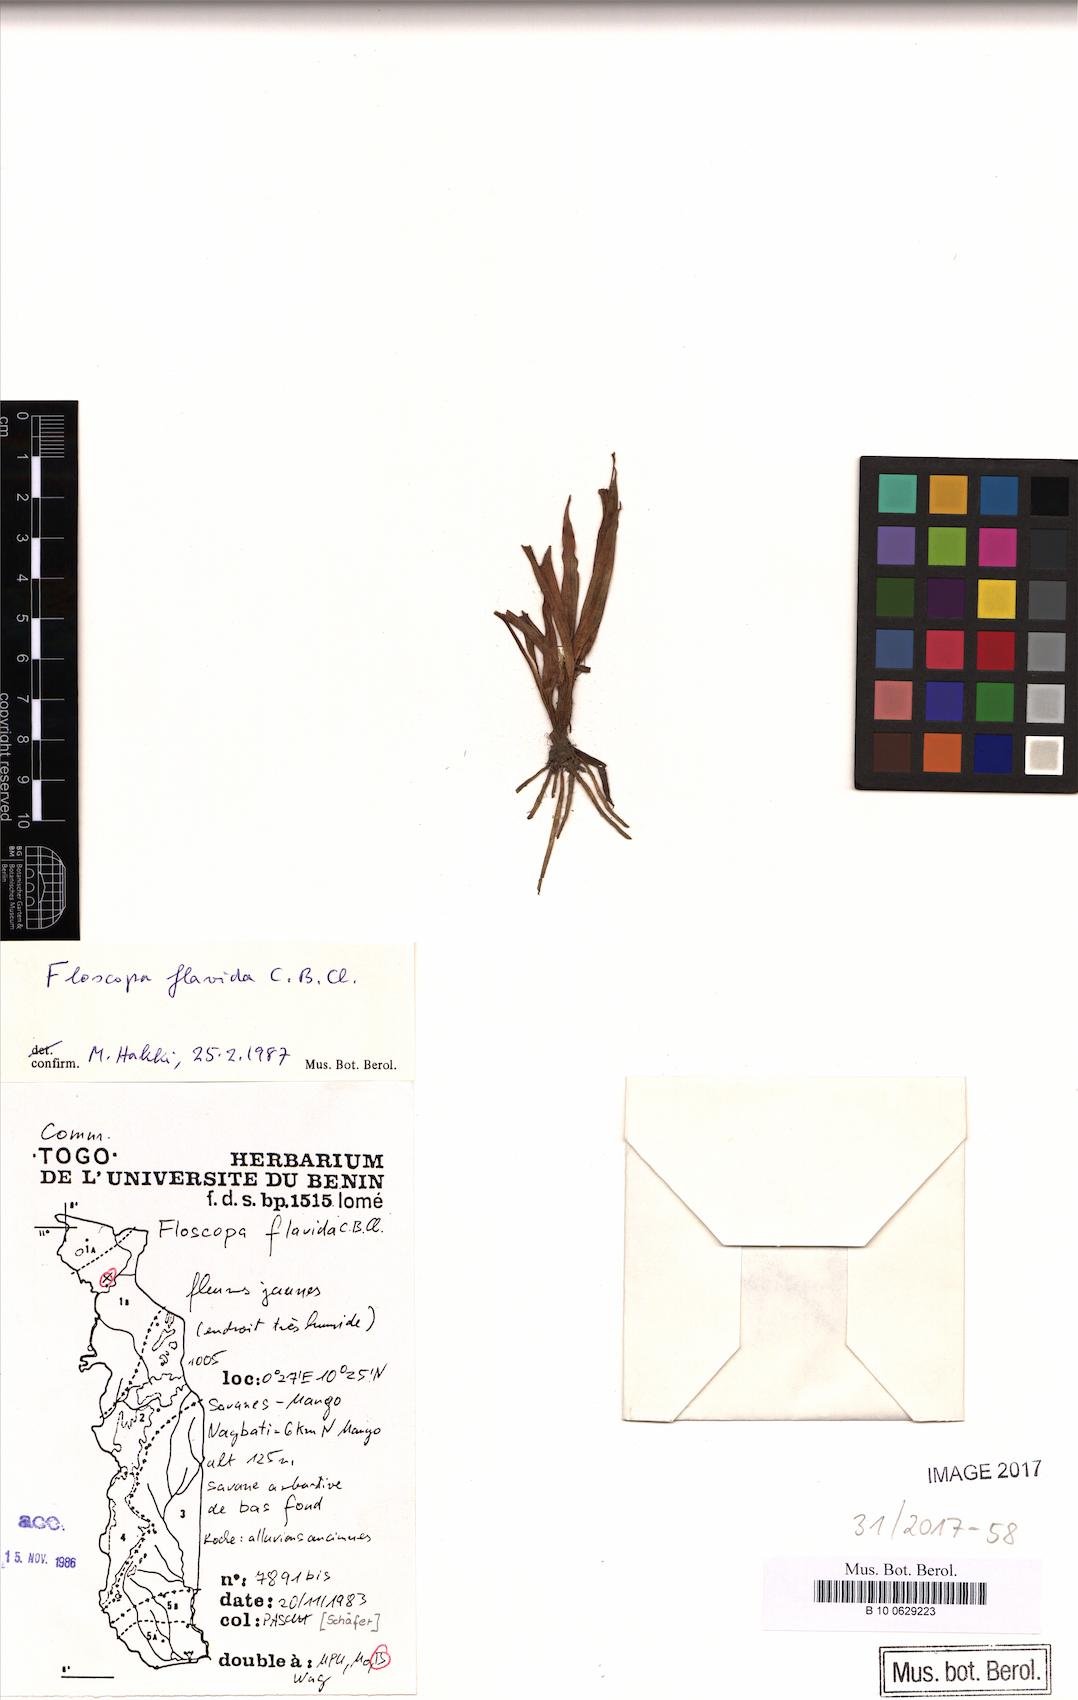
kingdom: Plantae
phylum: Tracheophyta
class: Liliopsida
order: Commelinales
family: Commelinaceae
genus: Floscopa
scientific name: Floscopa flavida
